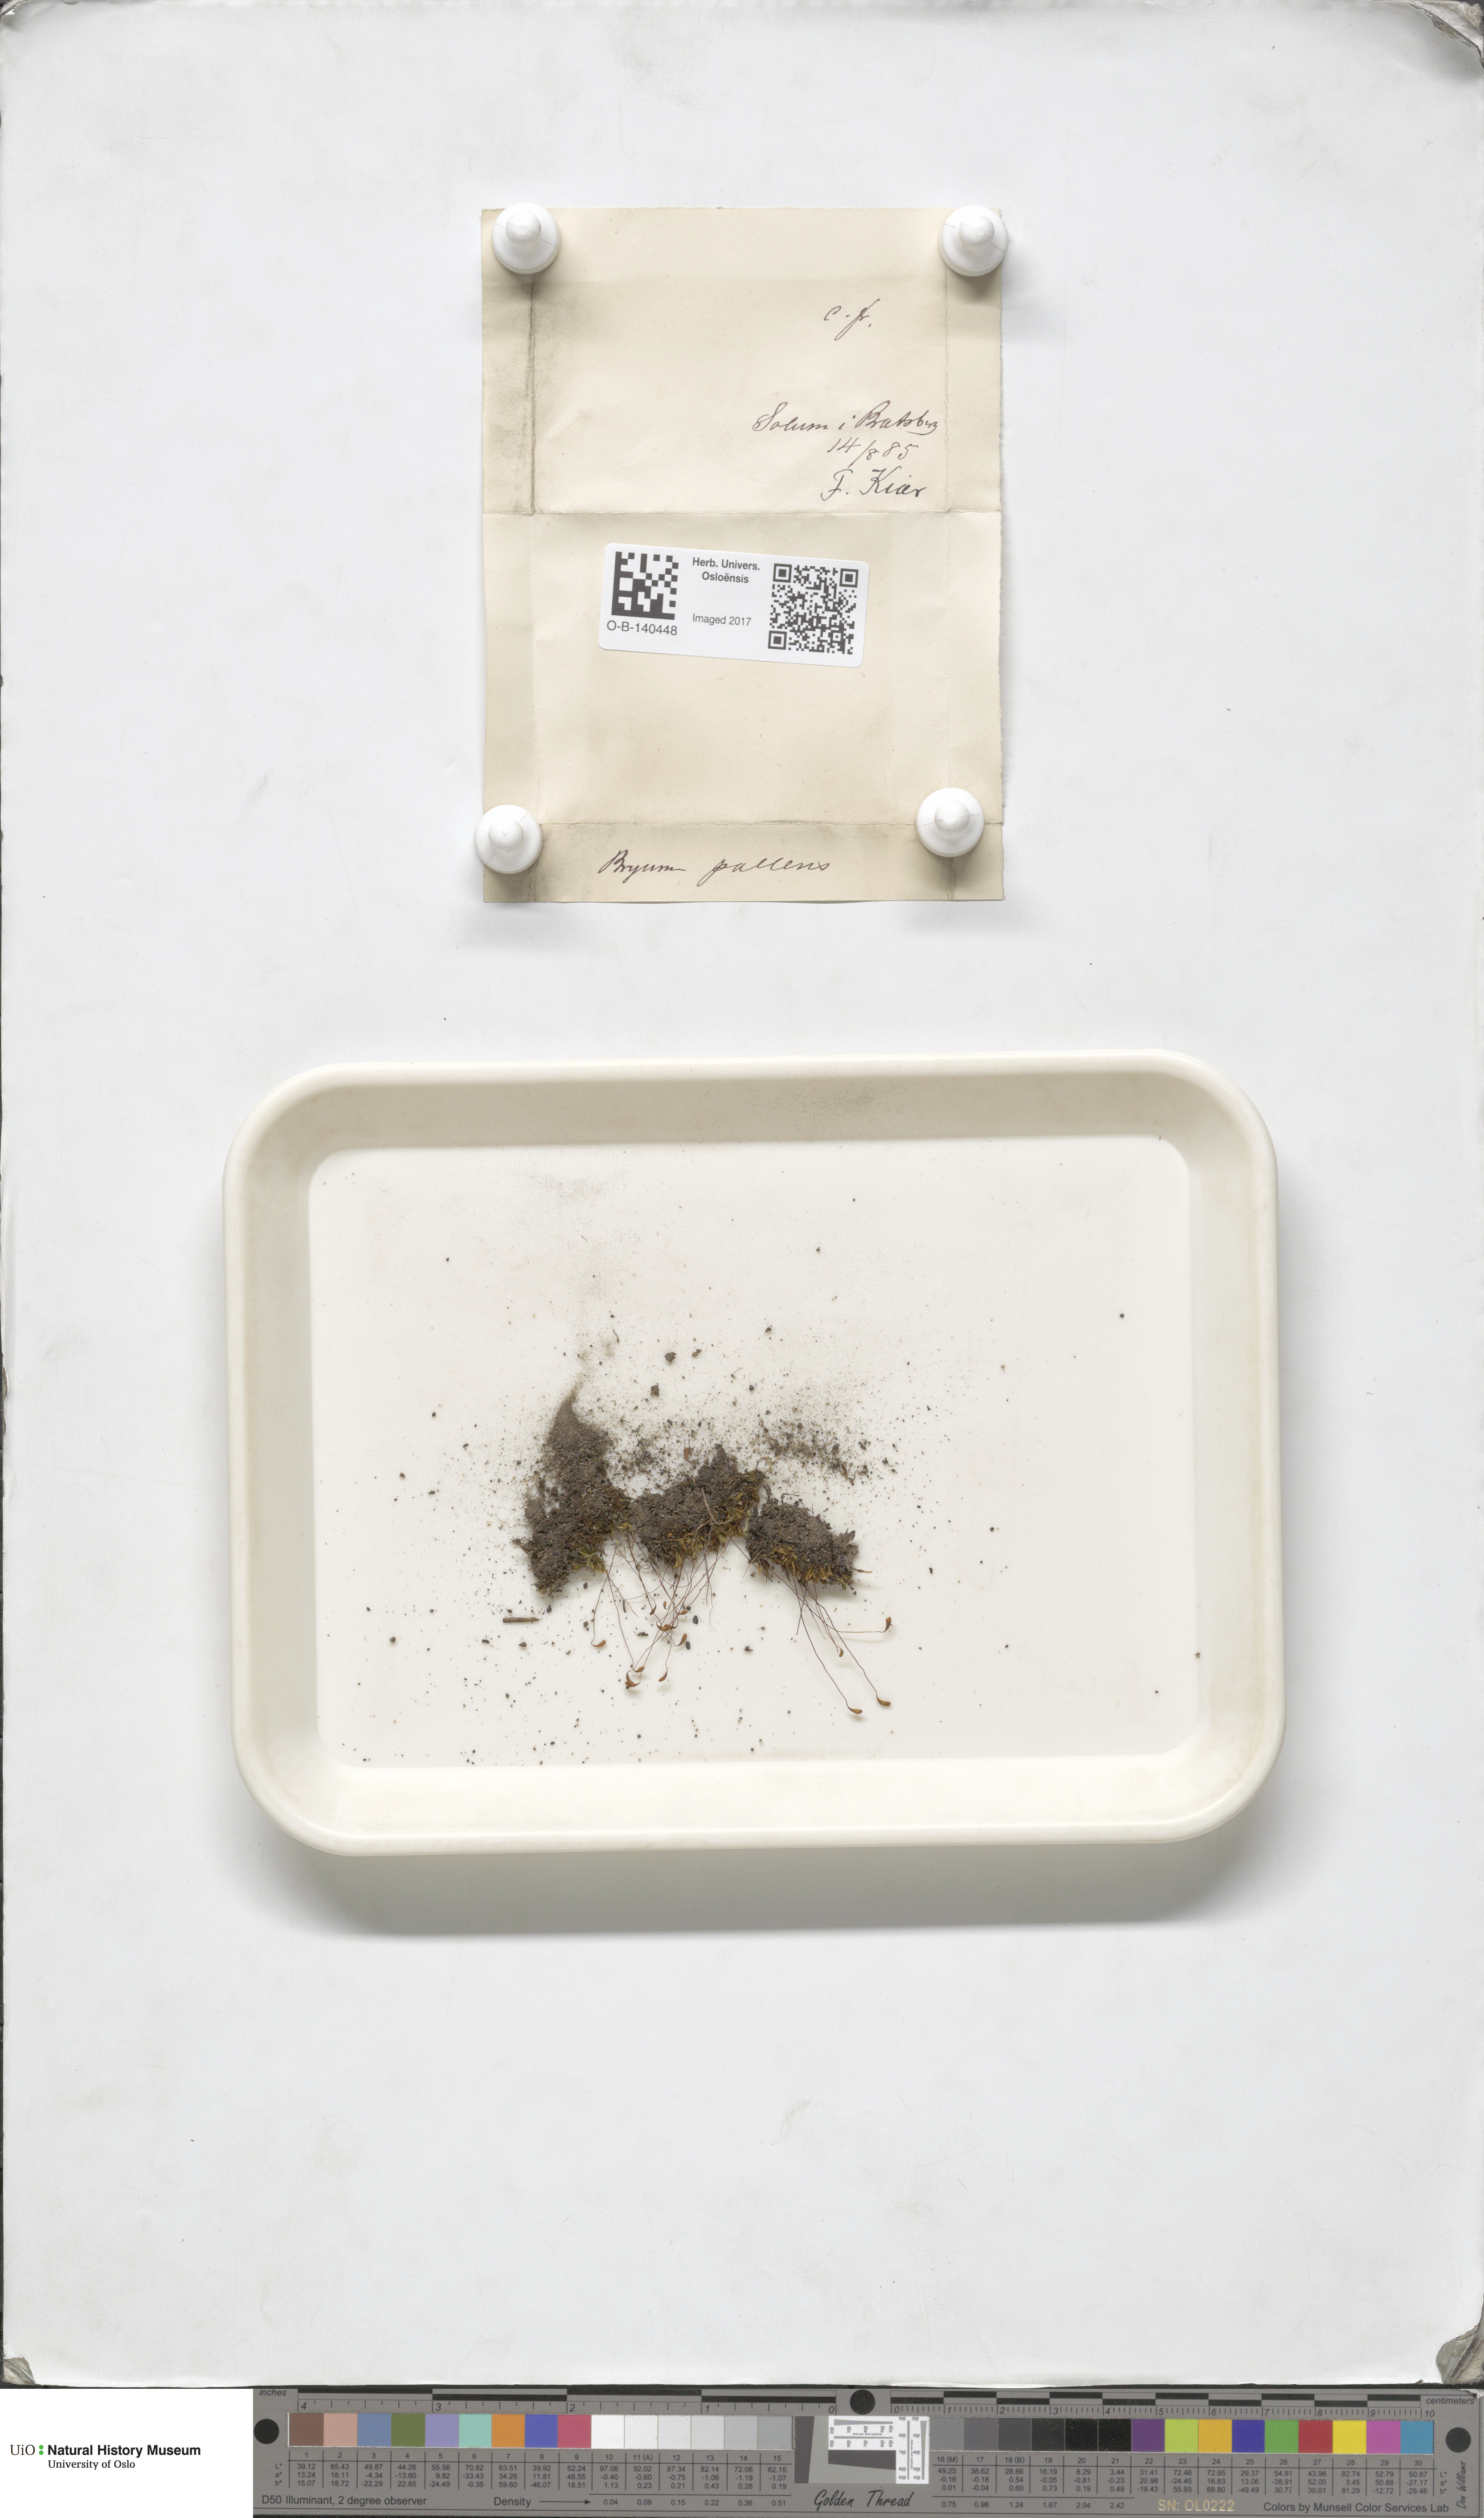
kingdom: Plantae
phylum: Bryophyta
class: Bryopsida
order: Bryales
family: Bryaceae
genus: Ptychostomum
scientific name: Ptychostomum pallens
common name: Pale thread-moss
